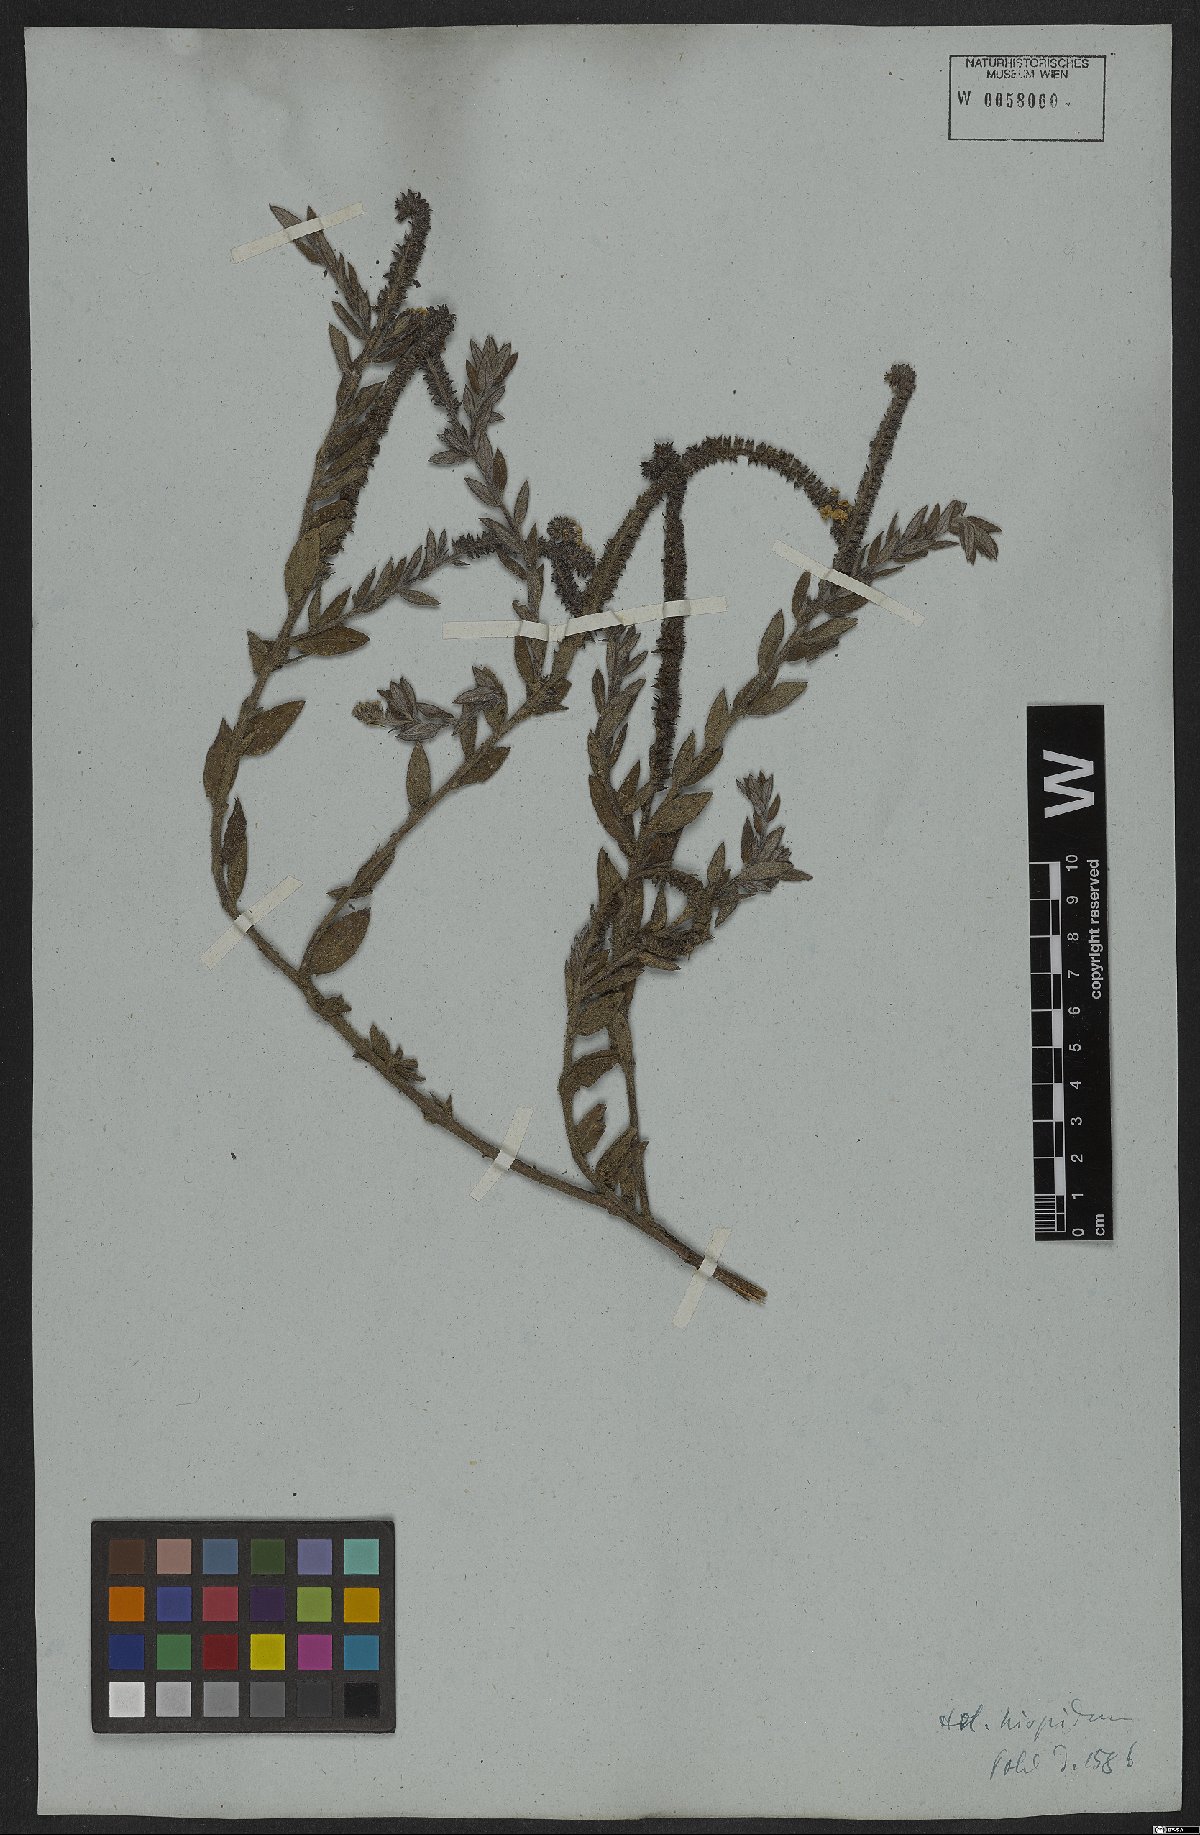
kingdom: Plantae
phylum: Tracheophyta
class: Magnoliopsida
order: Boraginales
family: Heliotropiaceae
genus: Euploca
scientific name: Euploca humilis
